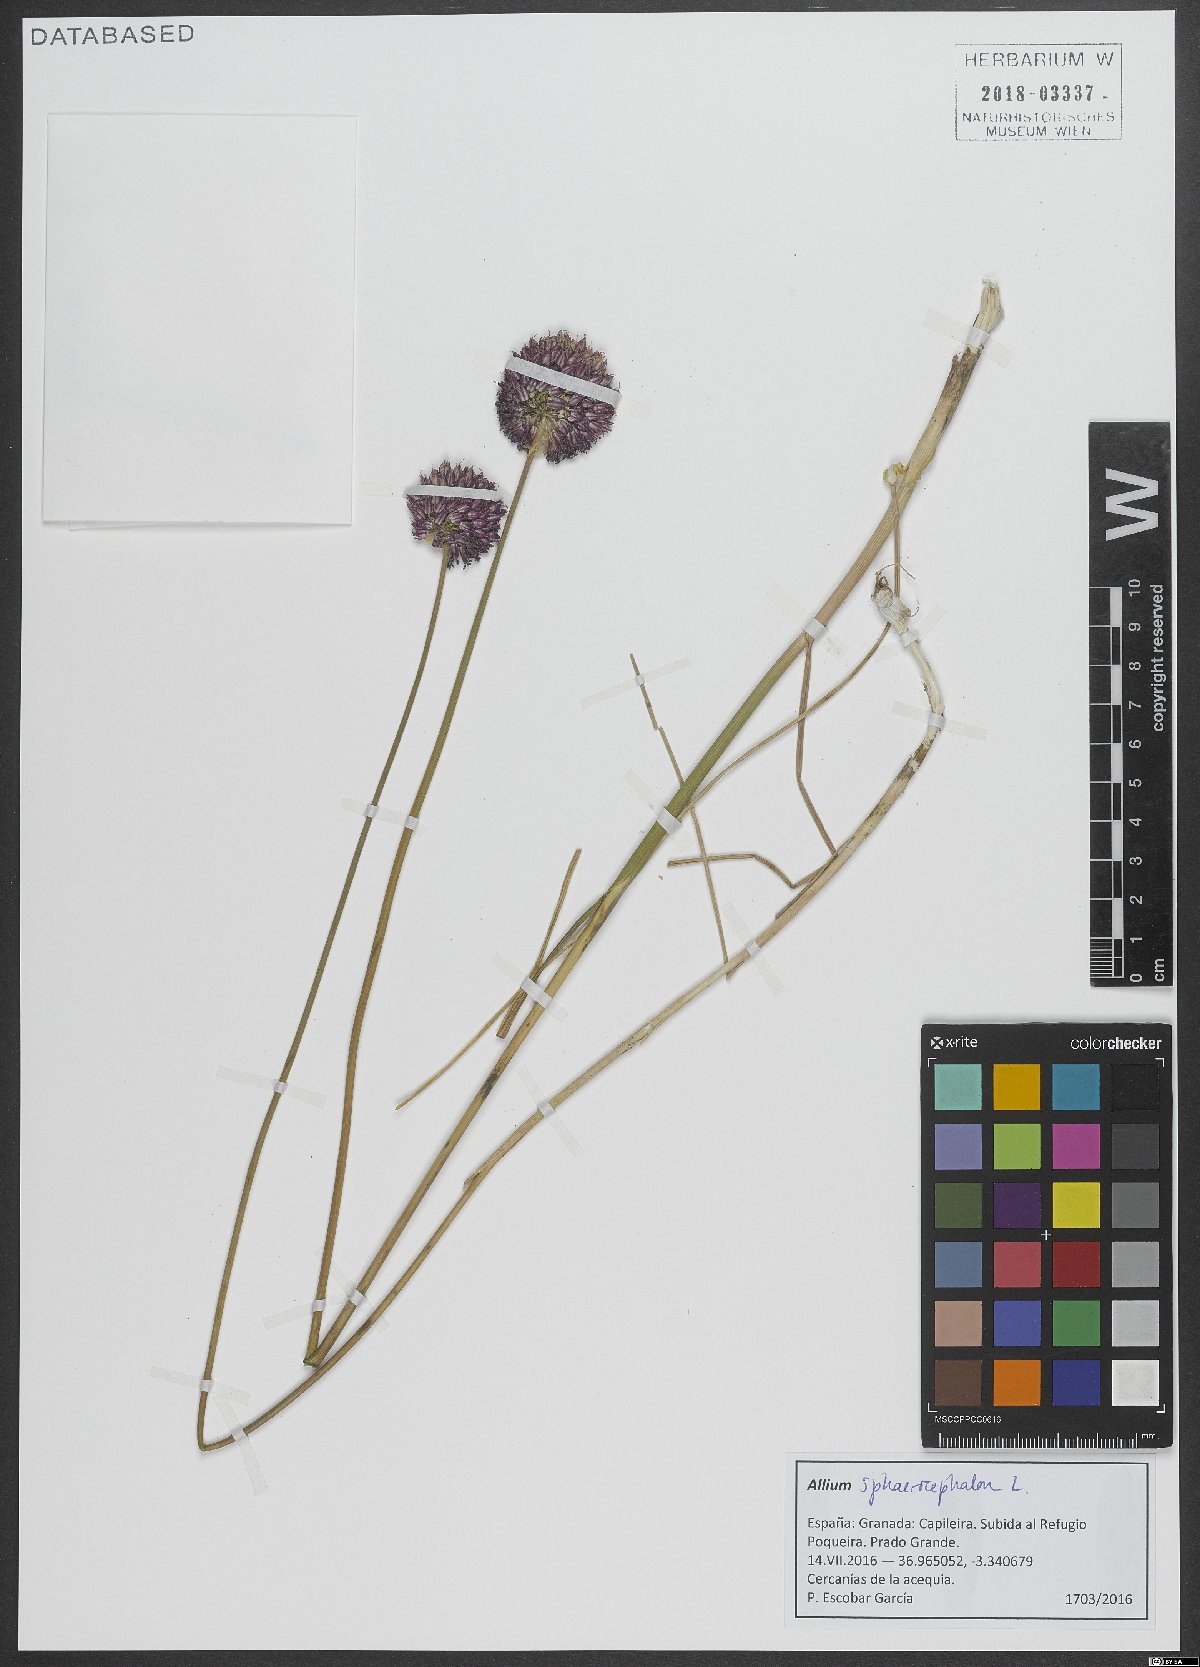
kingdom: Plantae
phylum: Tracheophyta
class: Liliopsida
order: Asparagales
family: Amaryllidaceae
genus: Allium
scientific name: Allium sphaerocephalon
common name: Round-headed leek
